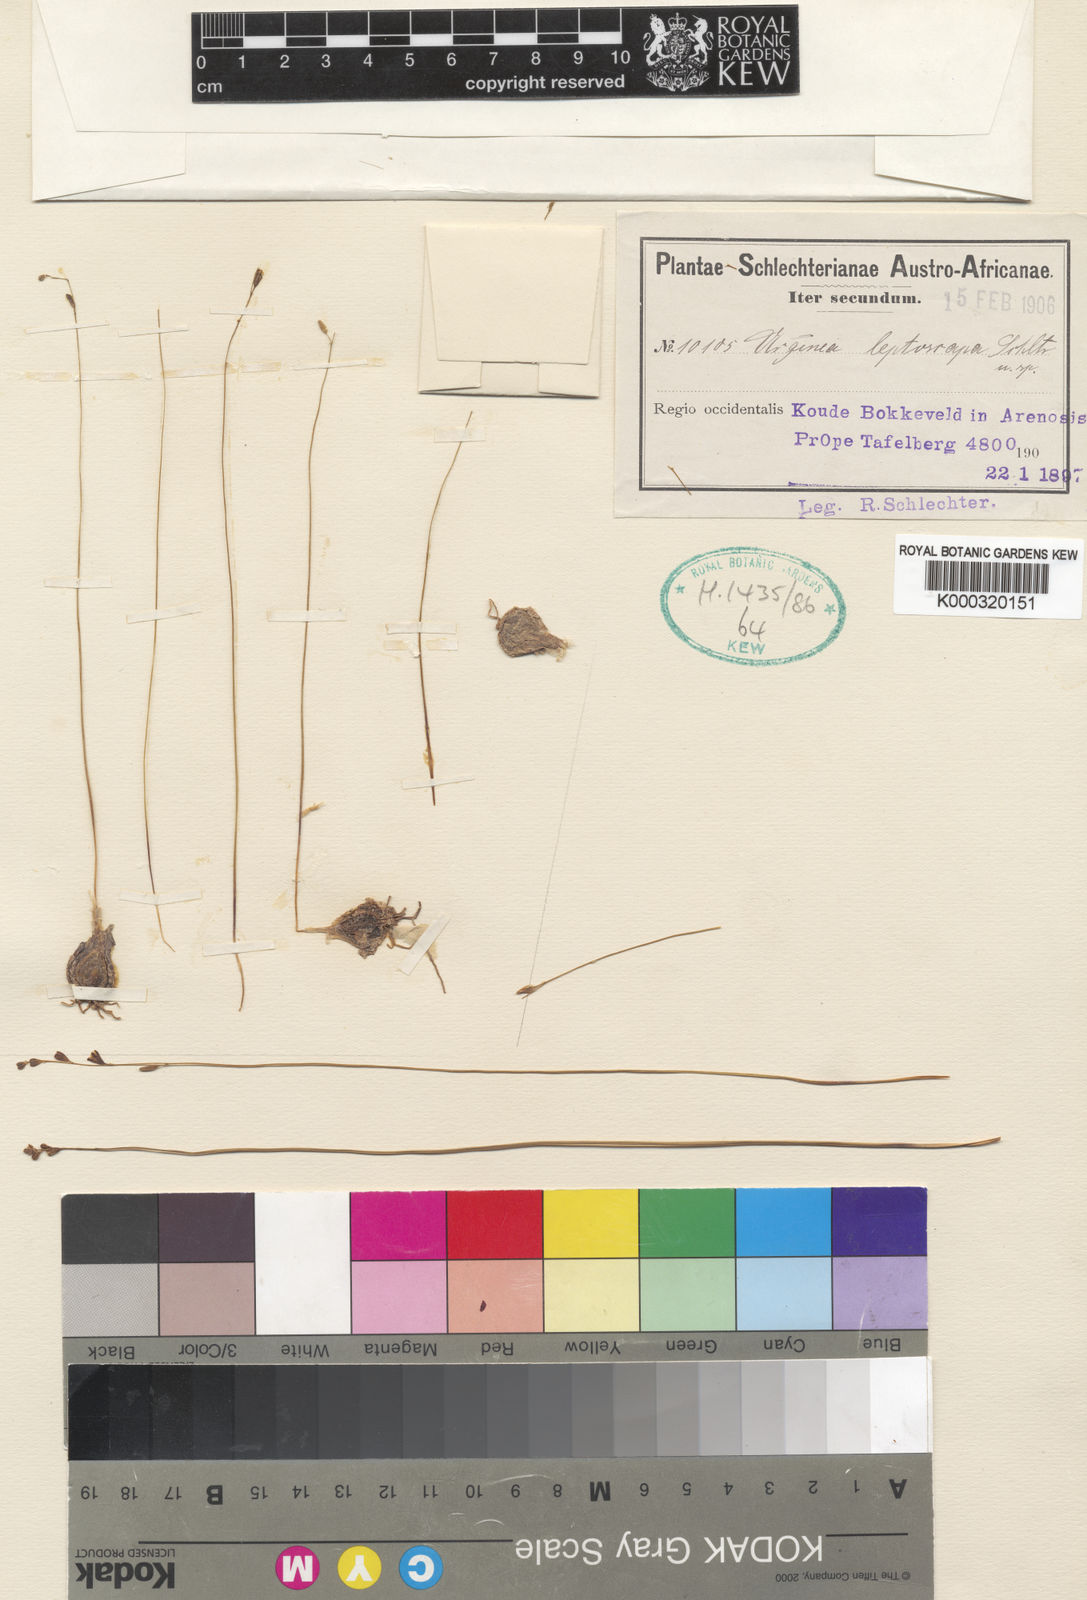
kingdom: Plantae
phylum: Tracheophyta
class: Liliopsida
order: Asparagales
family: Asparagaceae
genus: Drimia
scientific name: Drimia
